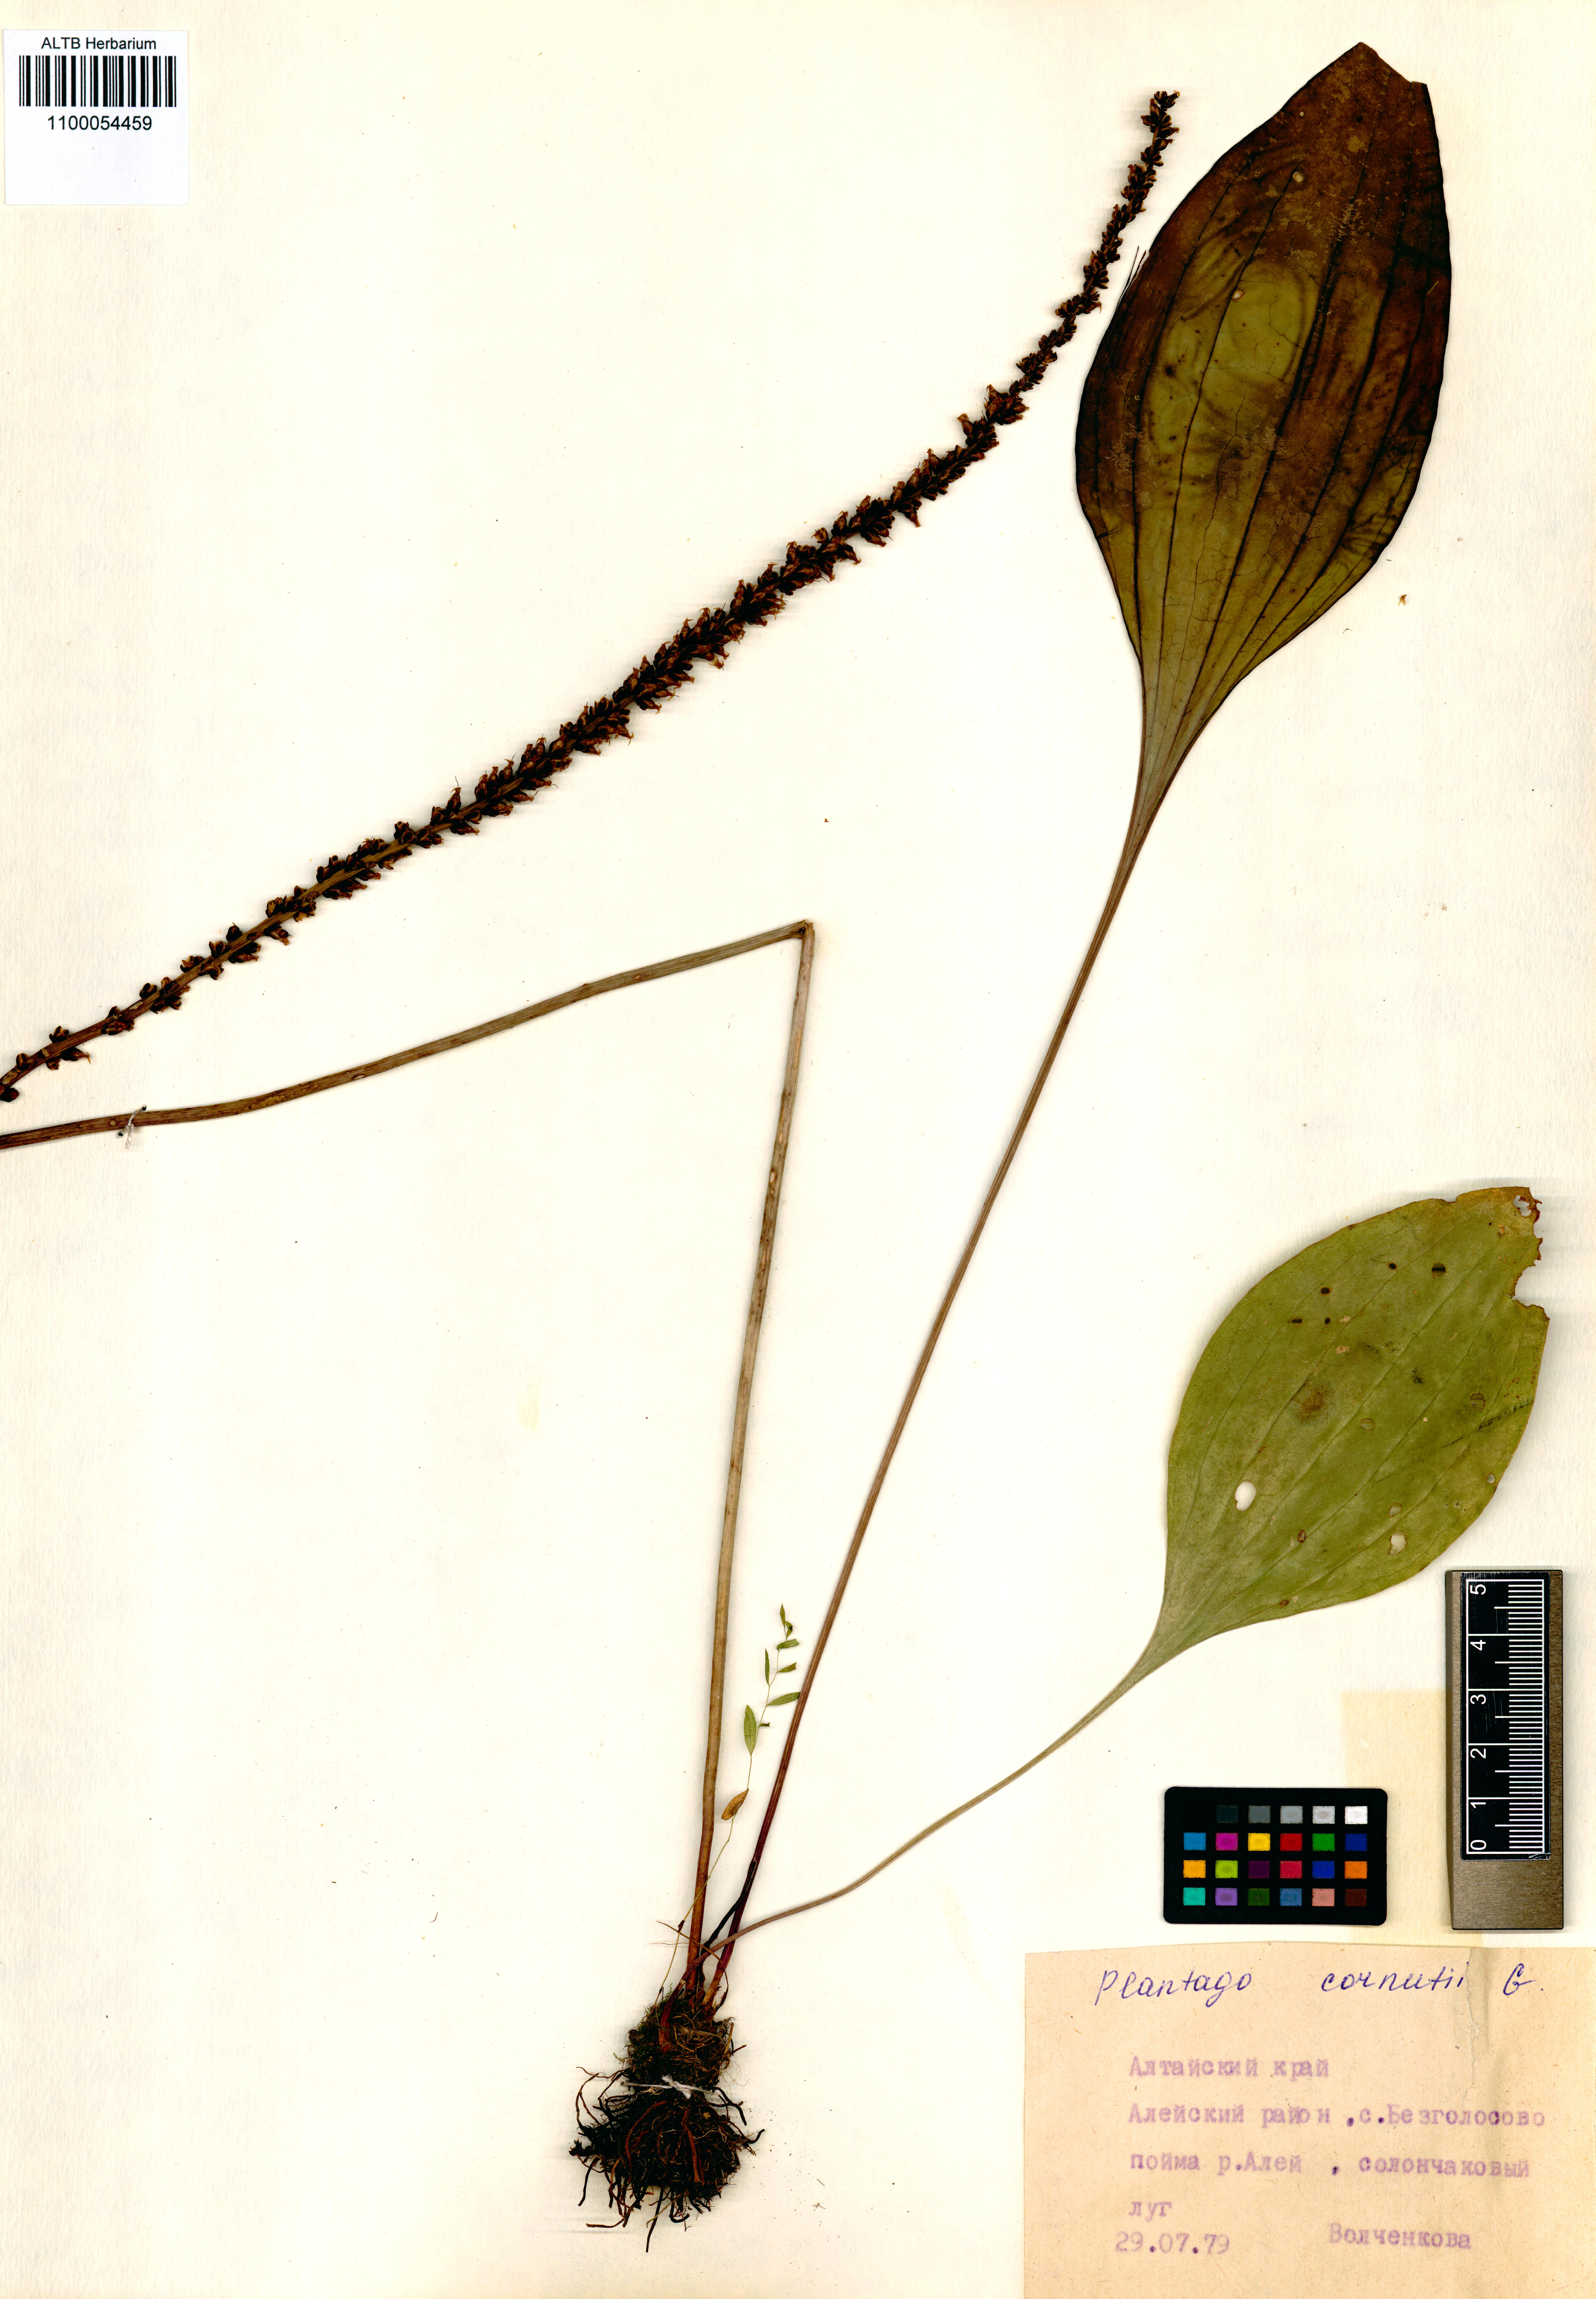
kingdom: Plantae
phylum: Tracheophyta
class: Magnoliopsida
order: Lamiales
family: Plantaginaceae
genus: Plantago
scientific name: Plantago cornuti
